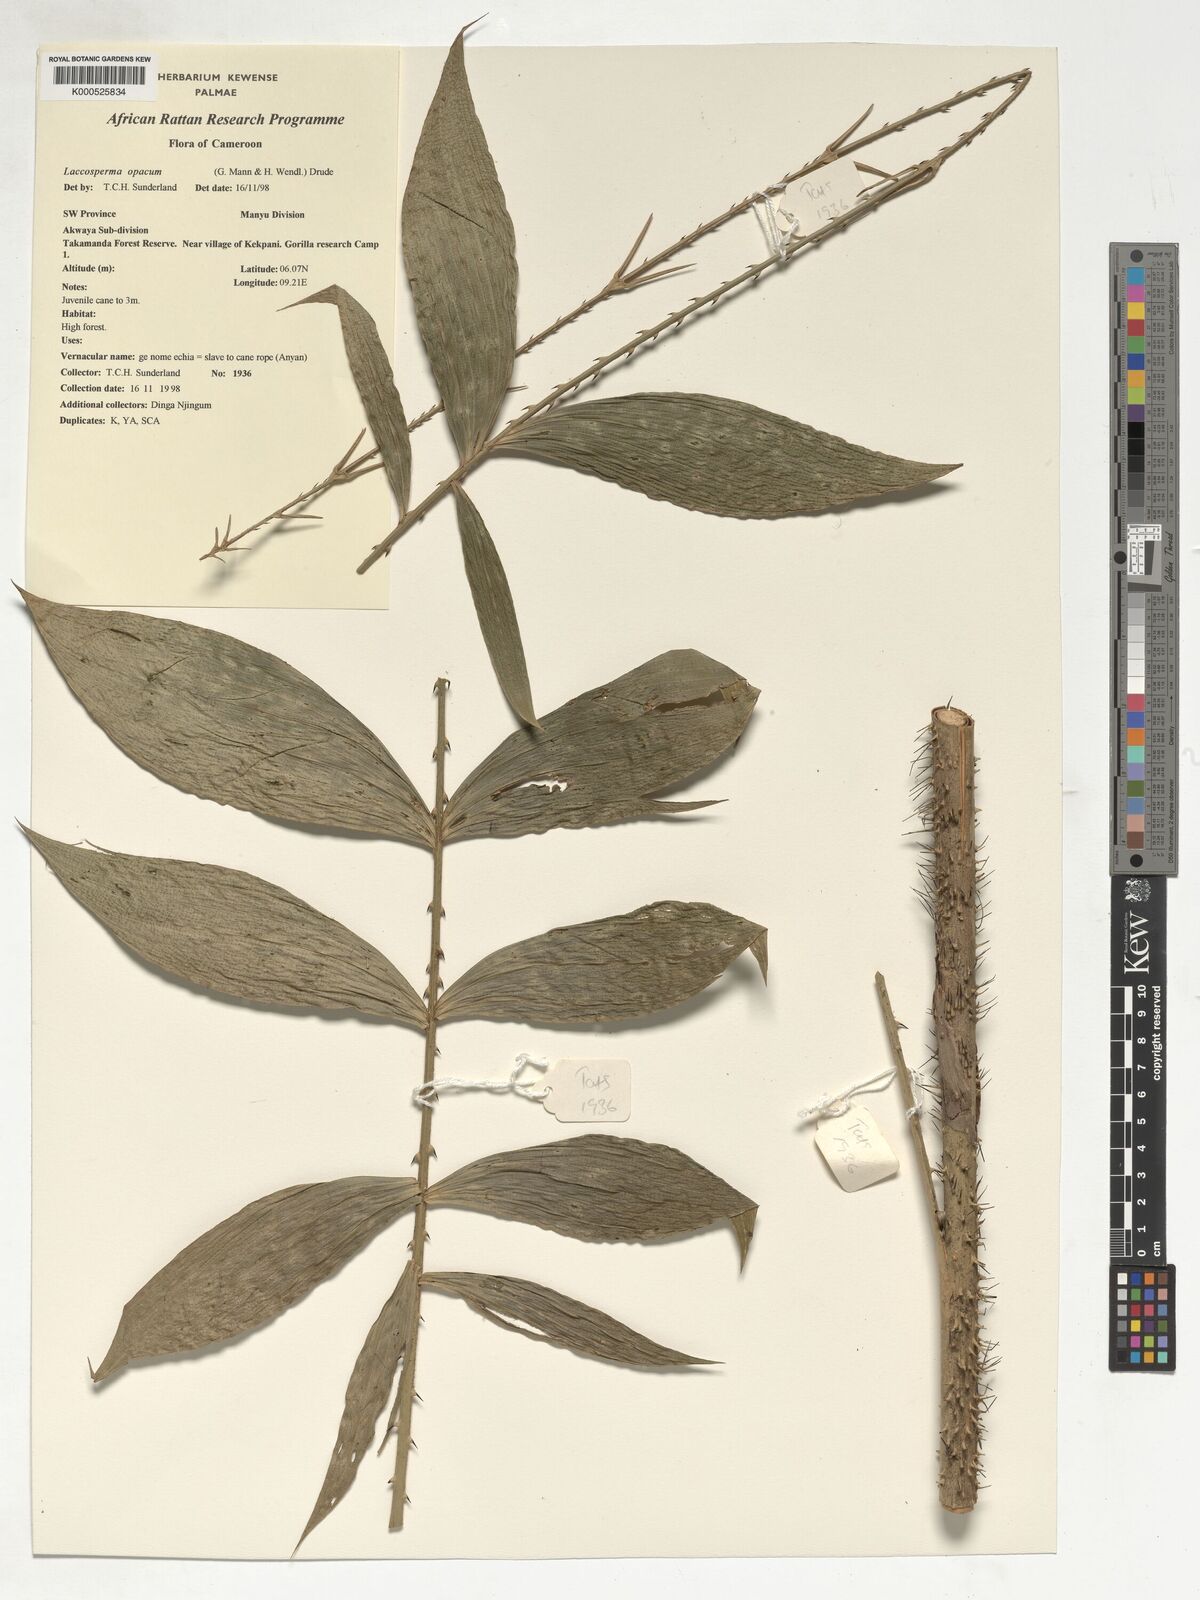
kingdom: Plantae
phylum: Tracheophyta
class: Liliopsida
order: Arecales
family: Arecaceae
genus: Laccosperma
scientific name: Laccosperma opacum
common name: Rattan
